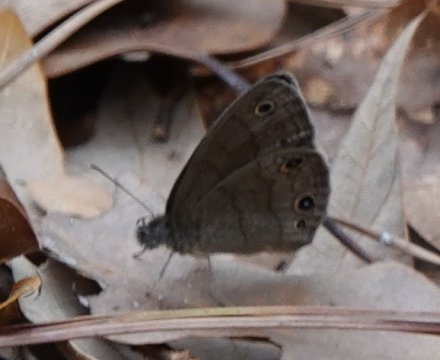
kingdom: Animalia
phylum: Arthropoda
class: Insecta
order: Lepidoptera
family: Nymphalidae
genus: Hermeuptychia
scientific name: Hermeuptychia hermes
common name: Carolina Satyr
